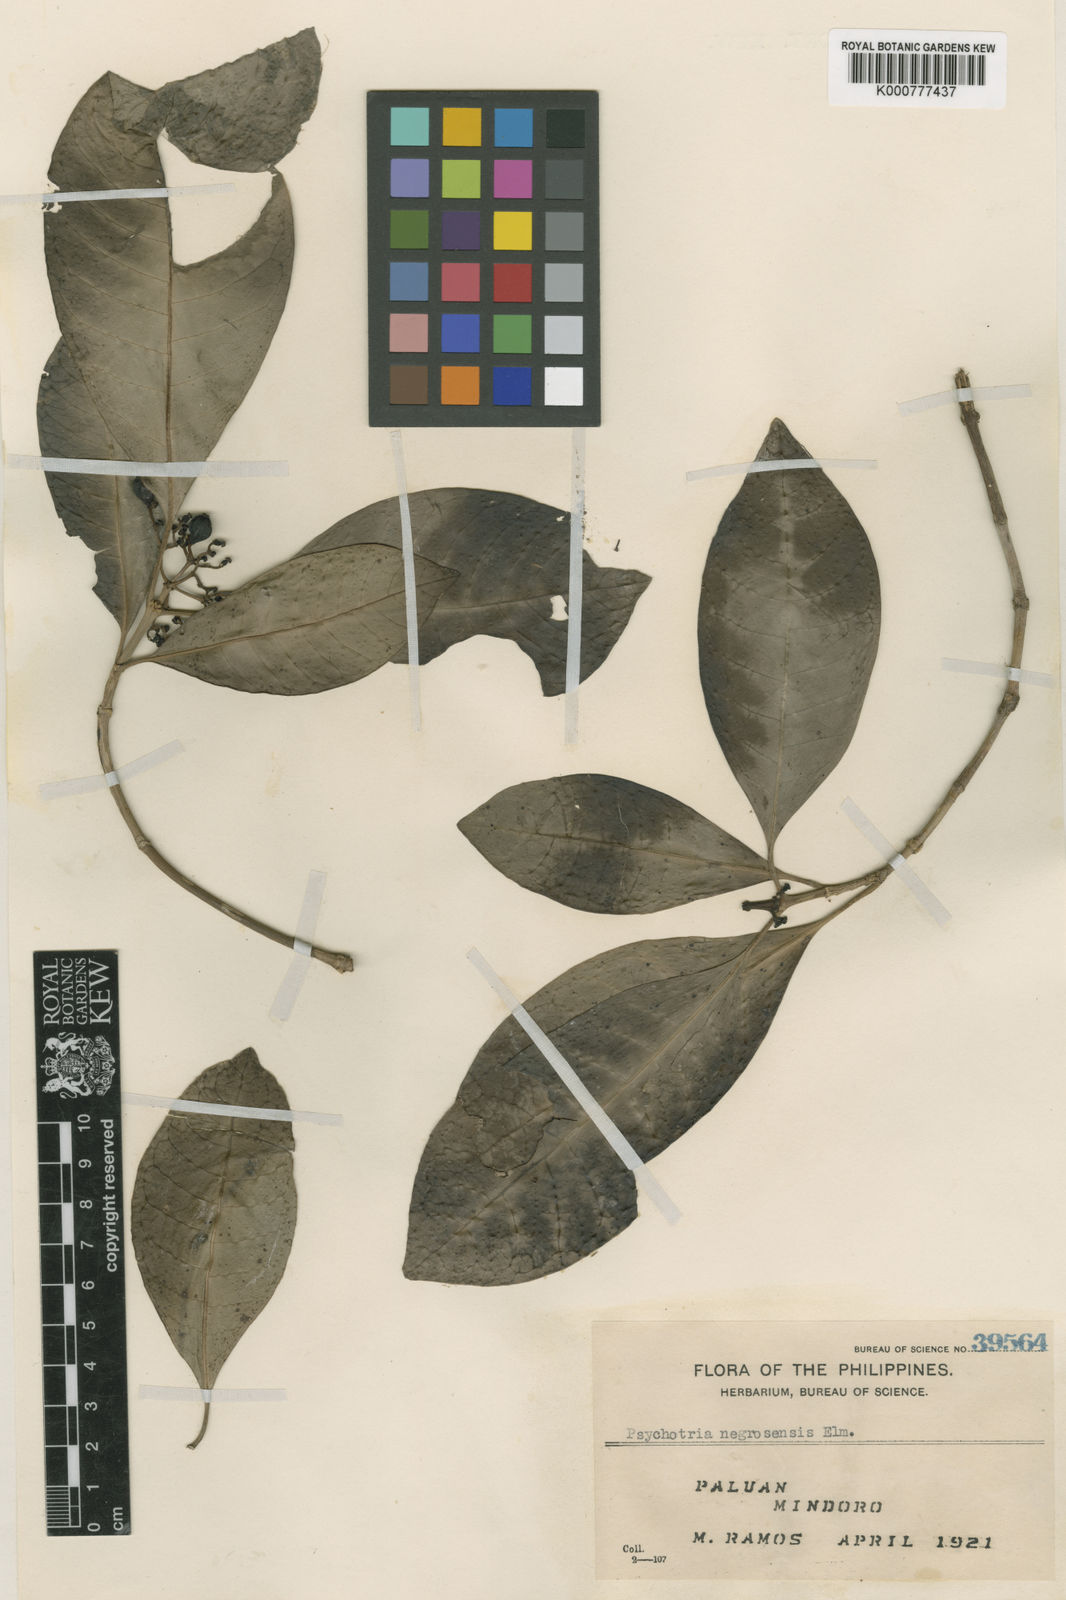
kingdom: Plantae
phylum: Tracheophyta
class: Magnoliopsida
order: Gentianales
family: Rubiaceae
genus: Psychotria
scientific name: Psychotria paloensis
